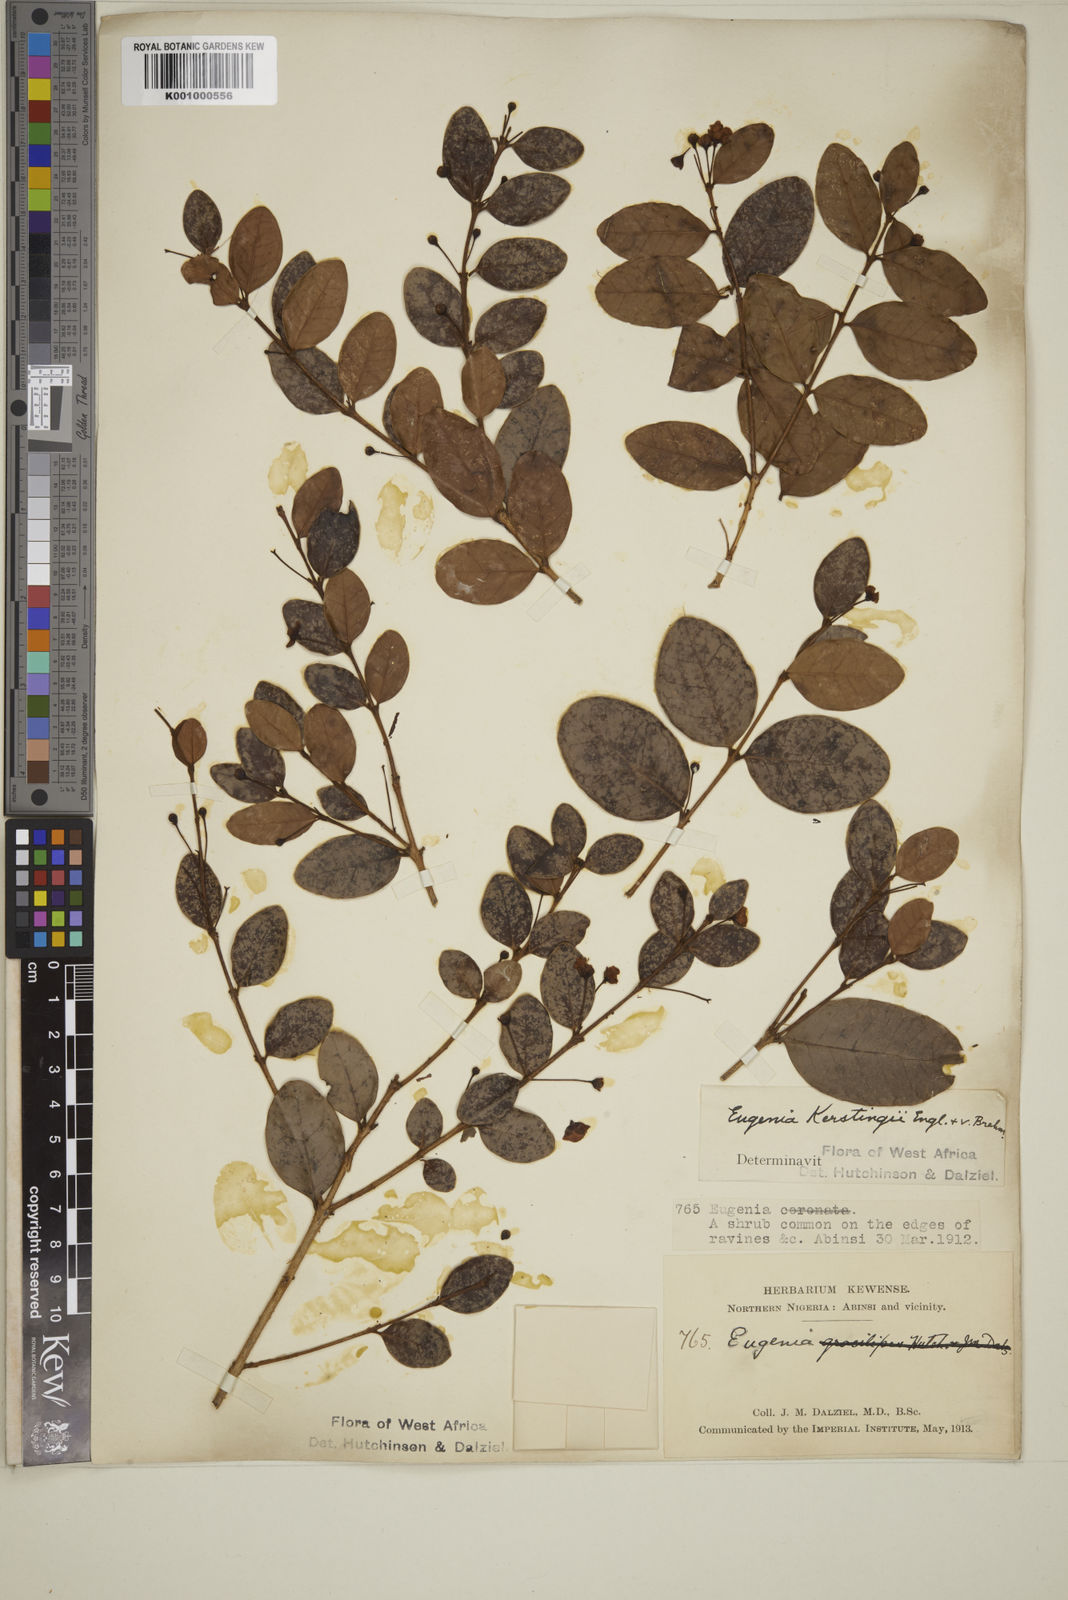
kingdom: Plantae
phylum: Tracheophyta
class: Magnoliopsida
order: Myrtales
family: Myrtaceae
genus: Eugenia
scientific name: Eugenia kerstingii
